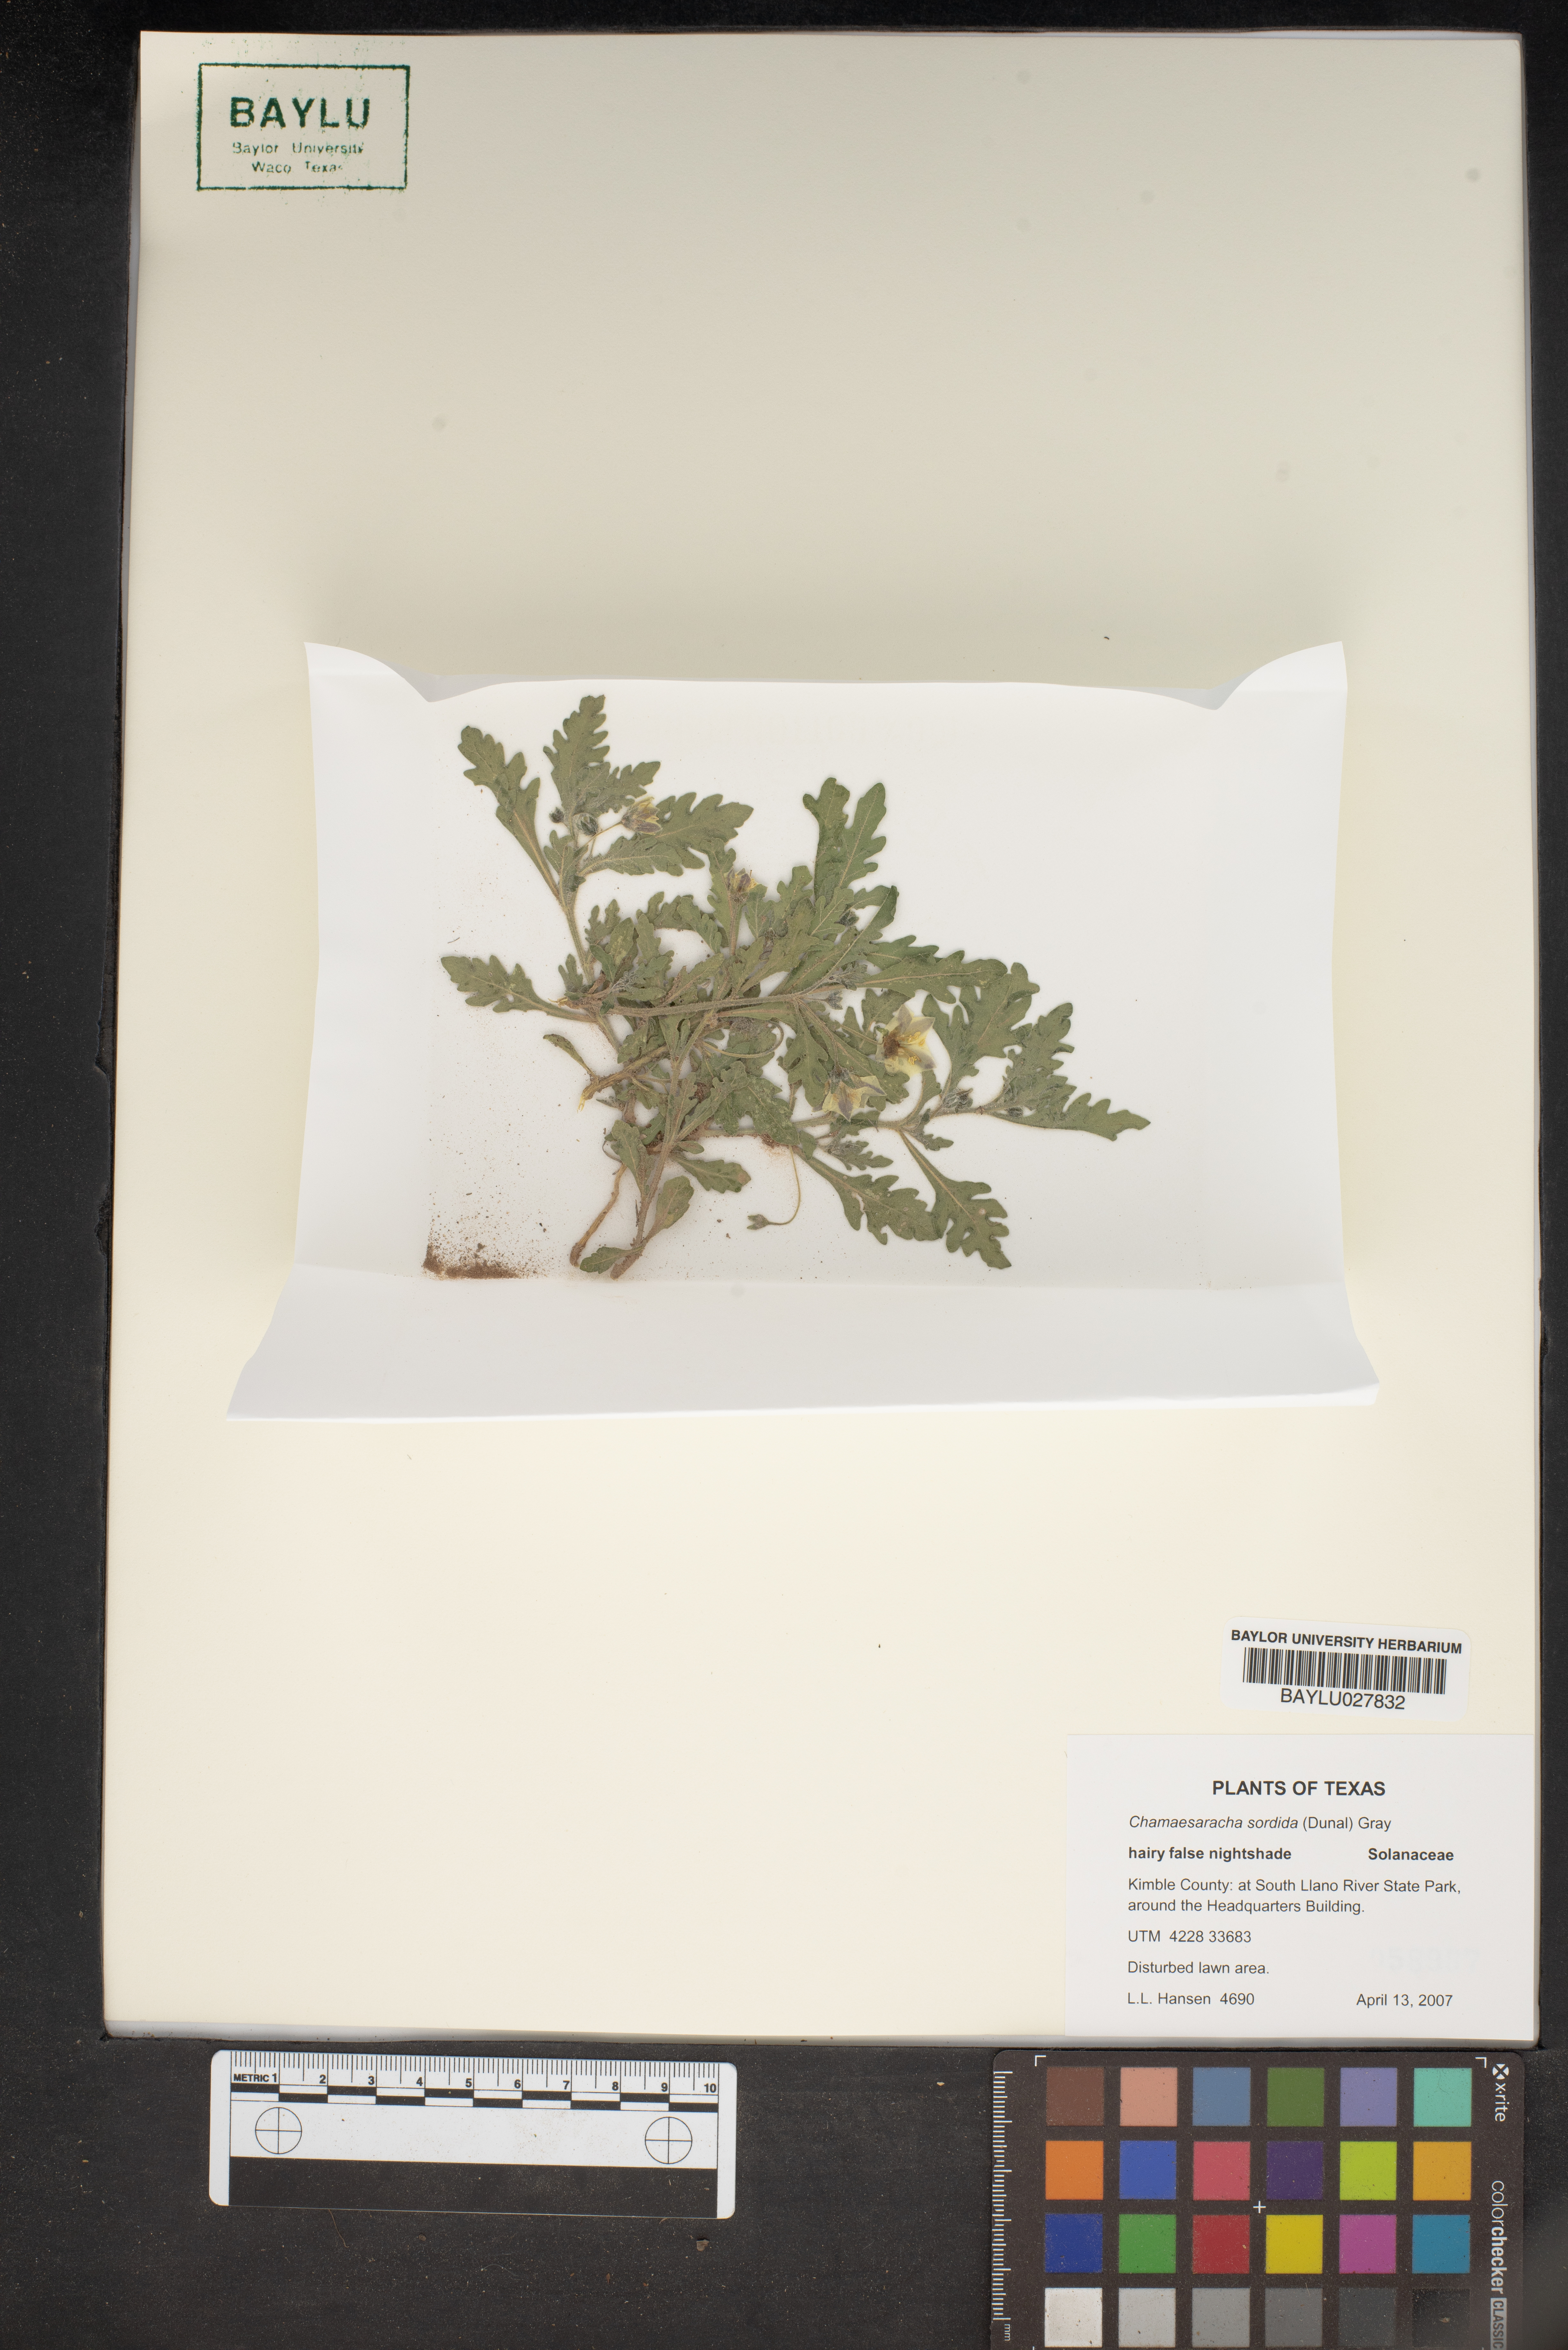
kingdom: Plantae
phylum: Tracheophyta
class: Magnoliopsida
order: Solanales
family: Solanaceae
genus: Chamaesaracha
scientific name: Chamaesaracha sordida
